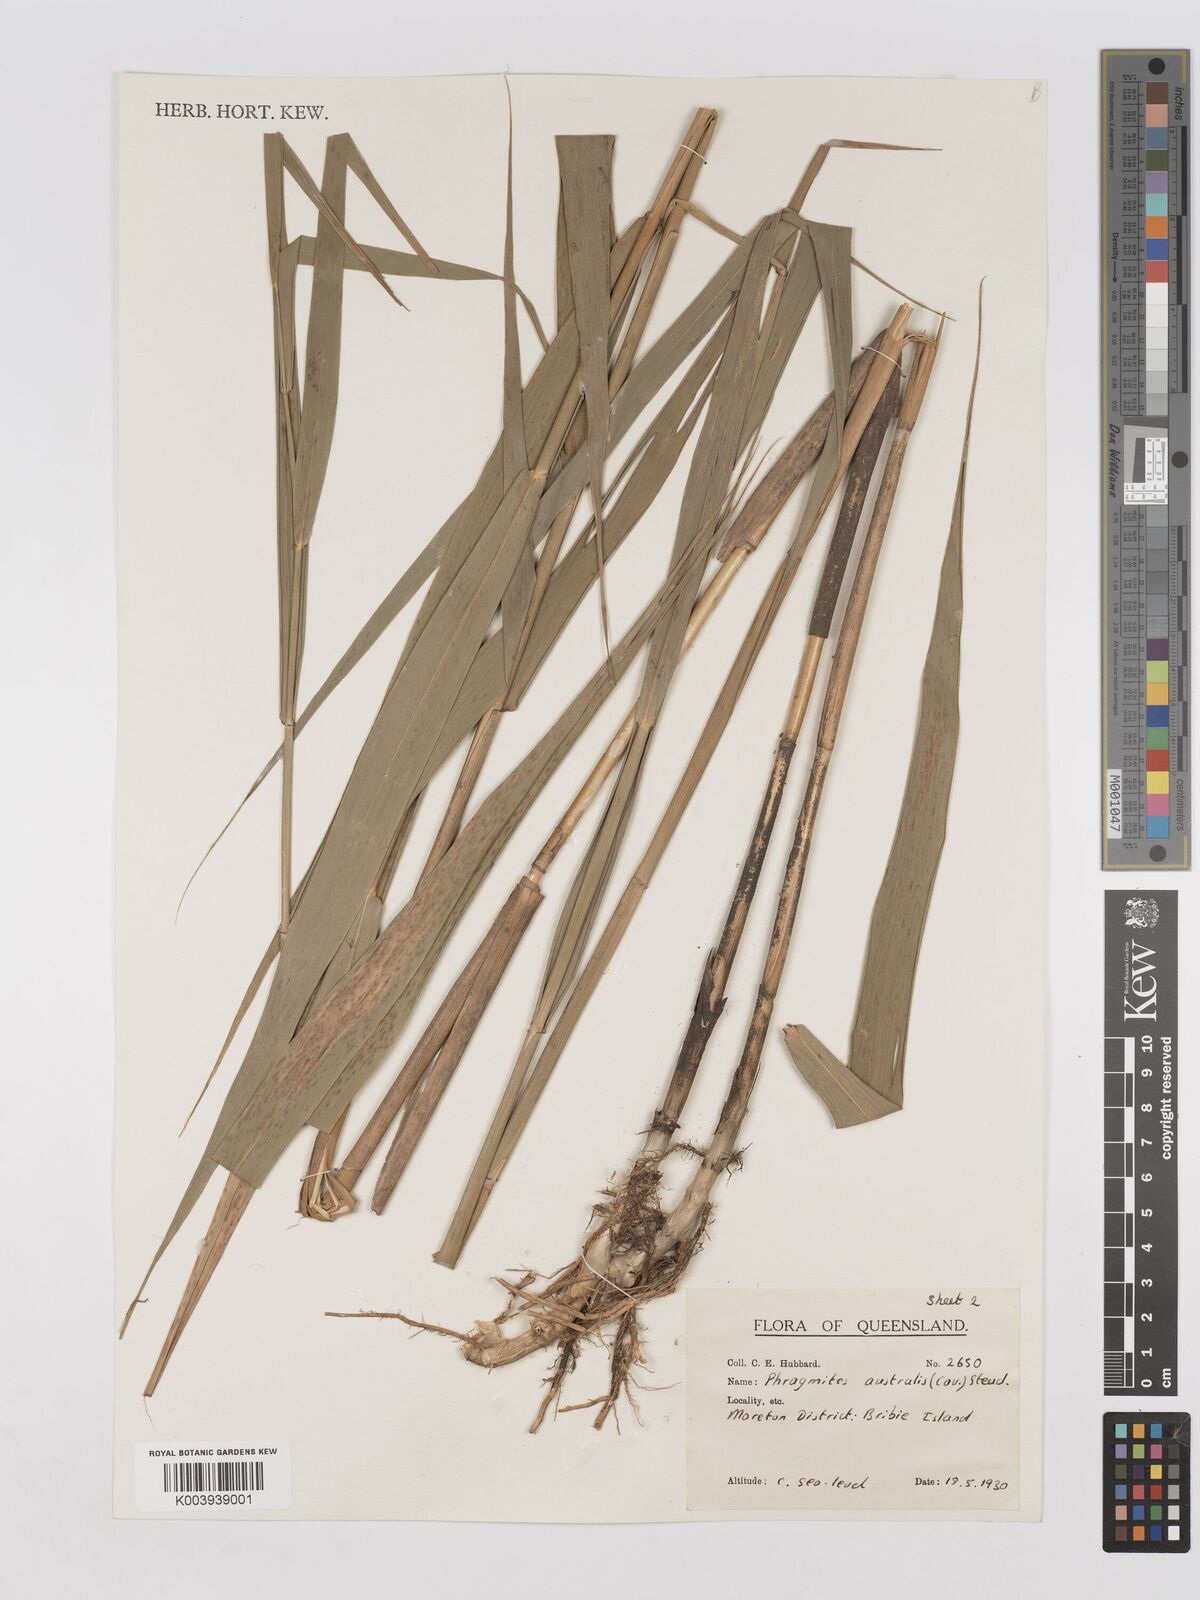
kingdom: Plantae
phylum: Tracheophyta
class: Liliopsida
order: Poales
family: Poaceae
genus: Phragmites
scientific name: Phragmites australis
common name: Common reed
